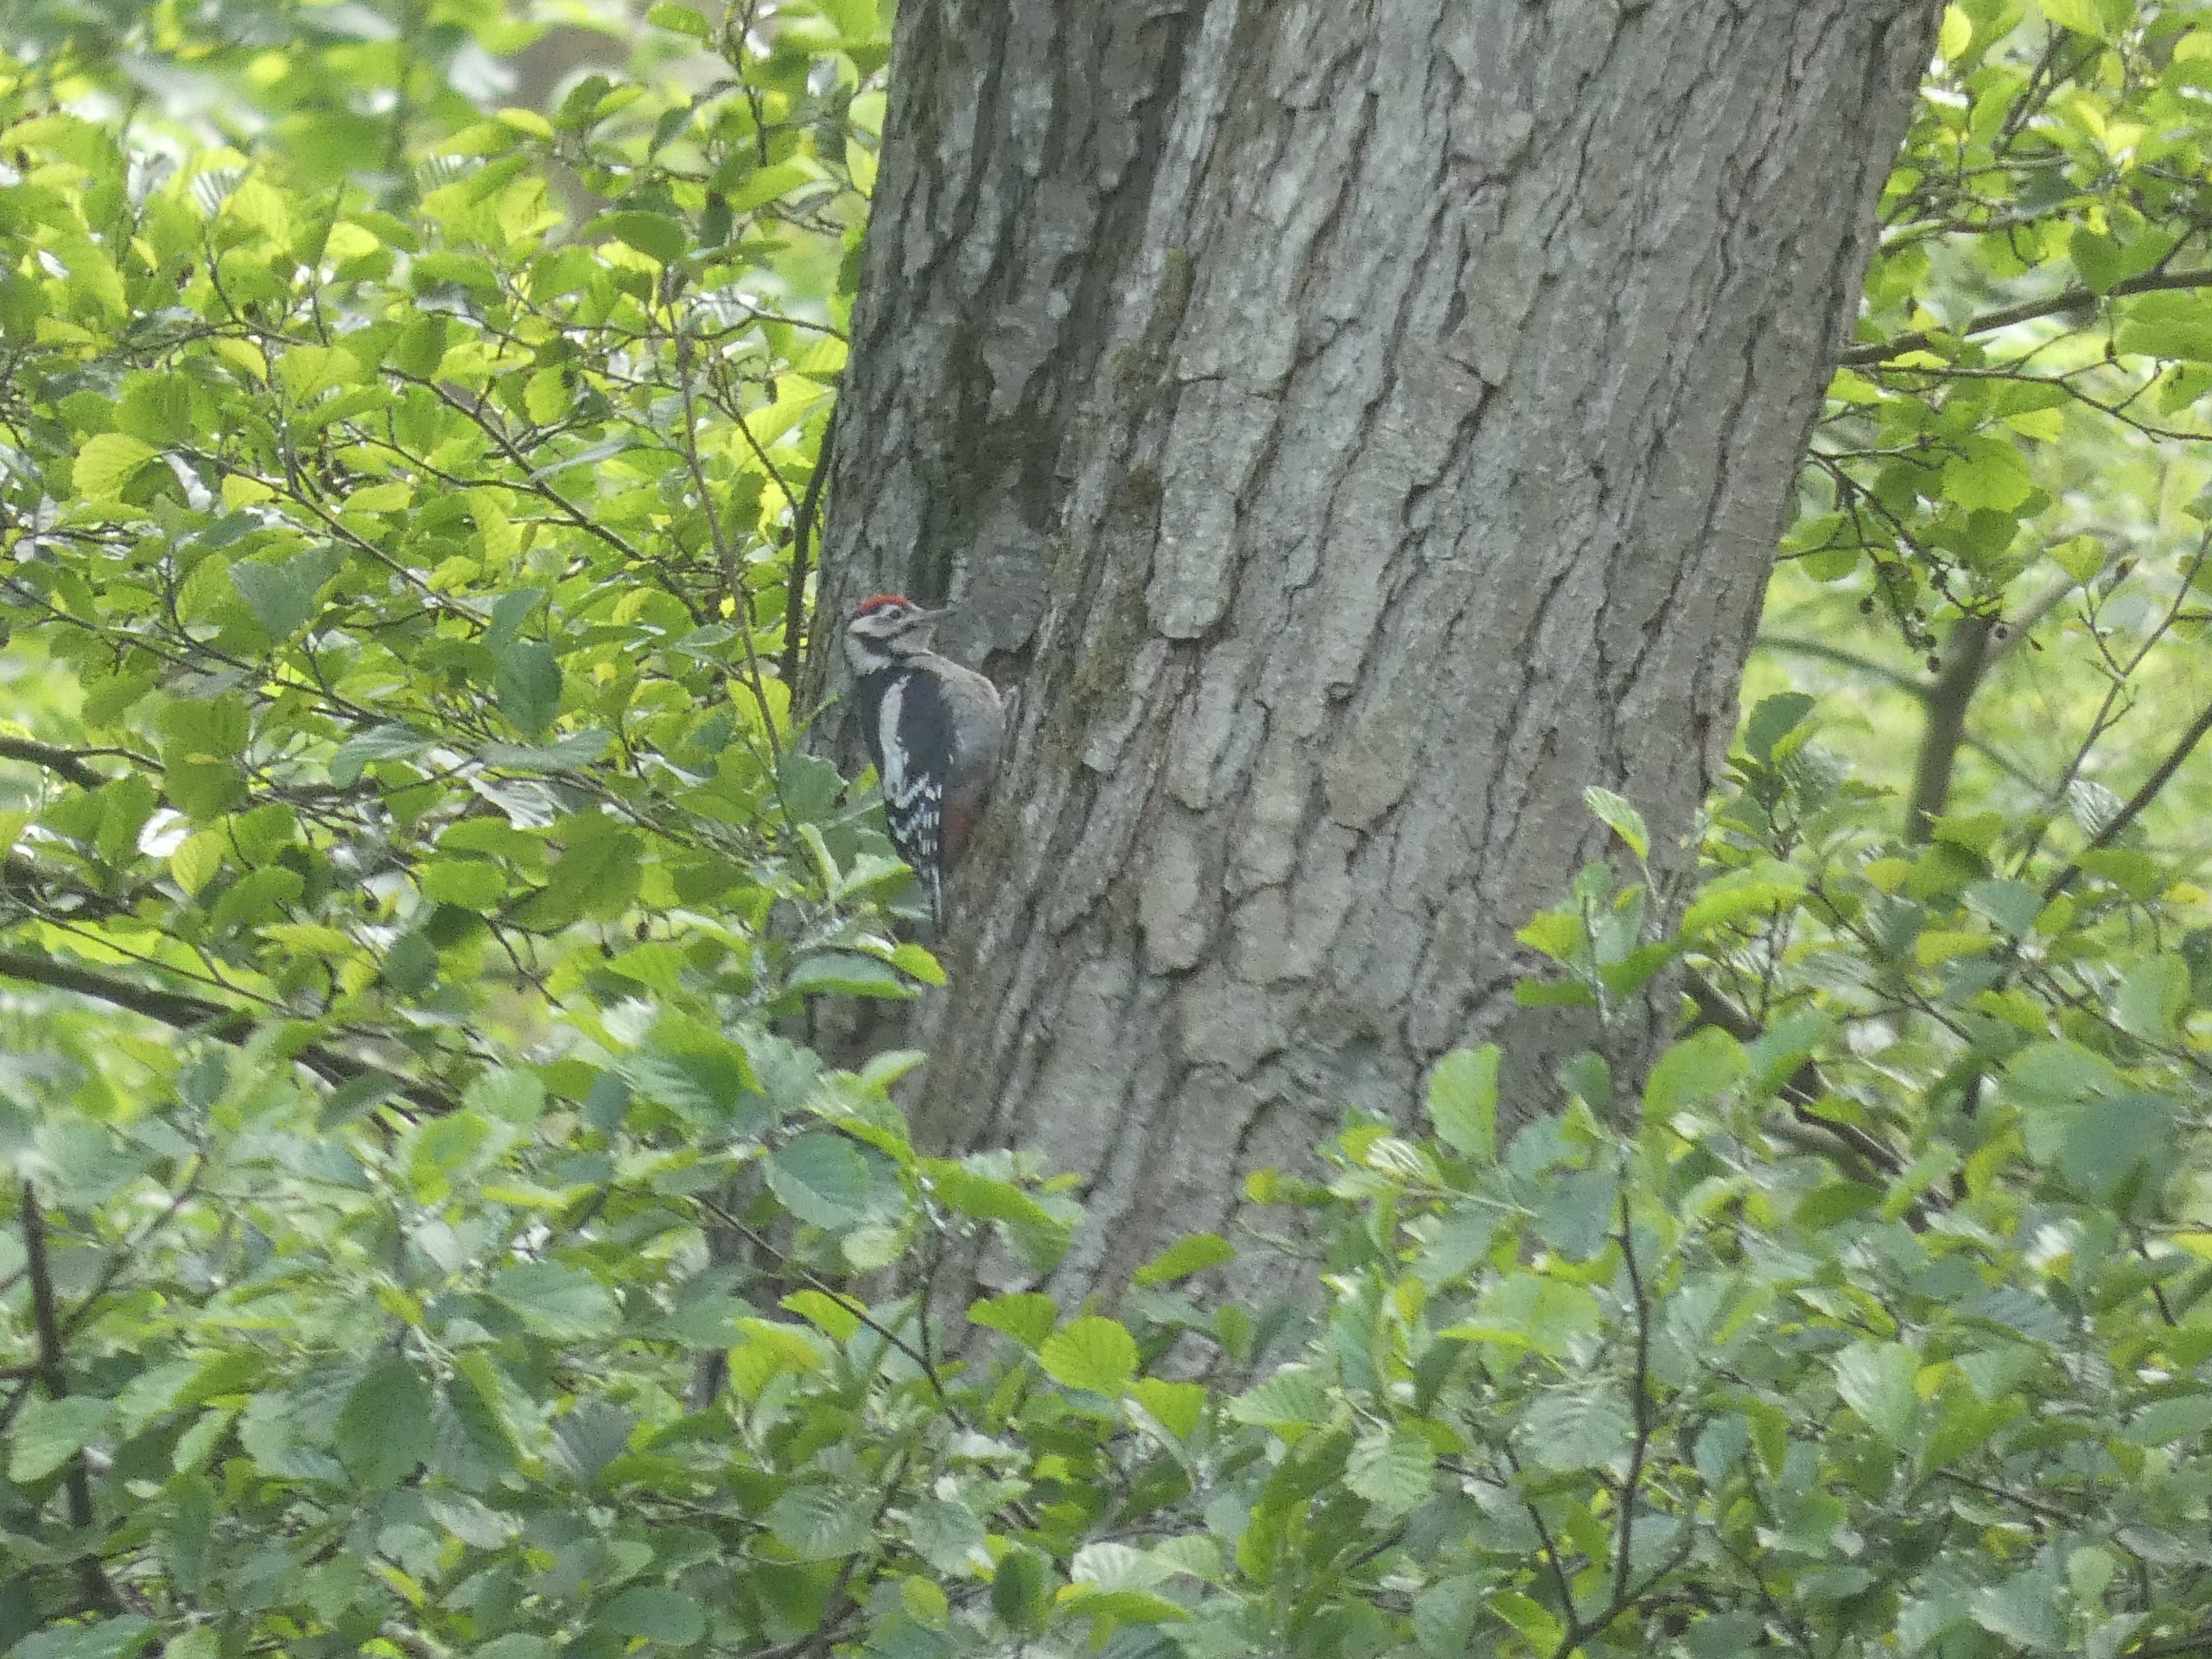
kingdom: Animalia
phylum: Chordata
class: Aves
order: Piciformes
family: Picidae
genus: Dendrocopos
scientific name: Dendrocopos major
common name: Stor flagspætte
